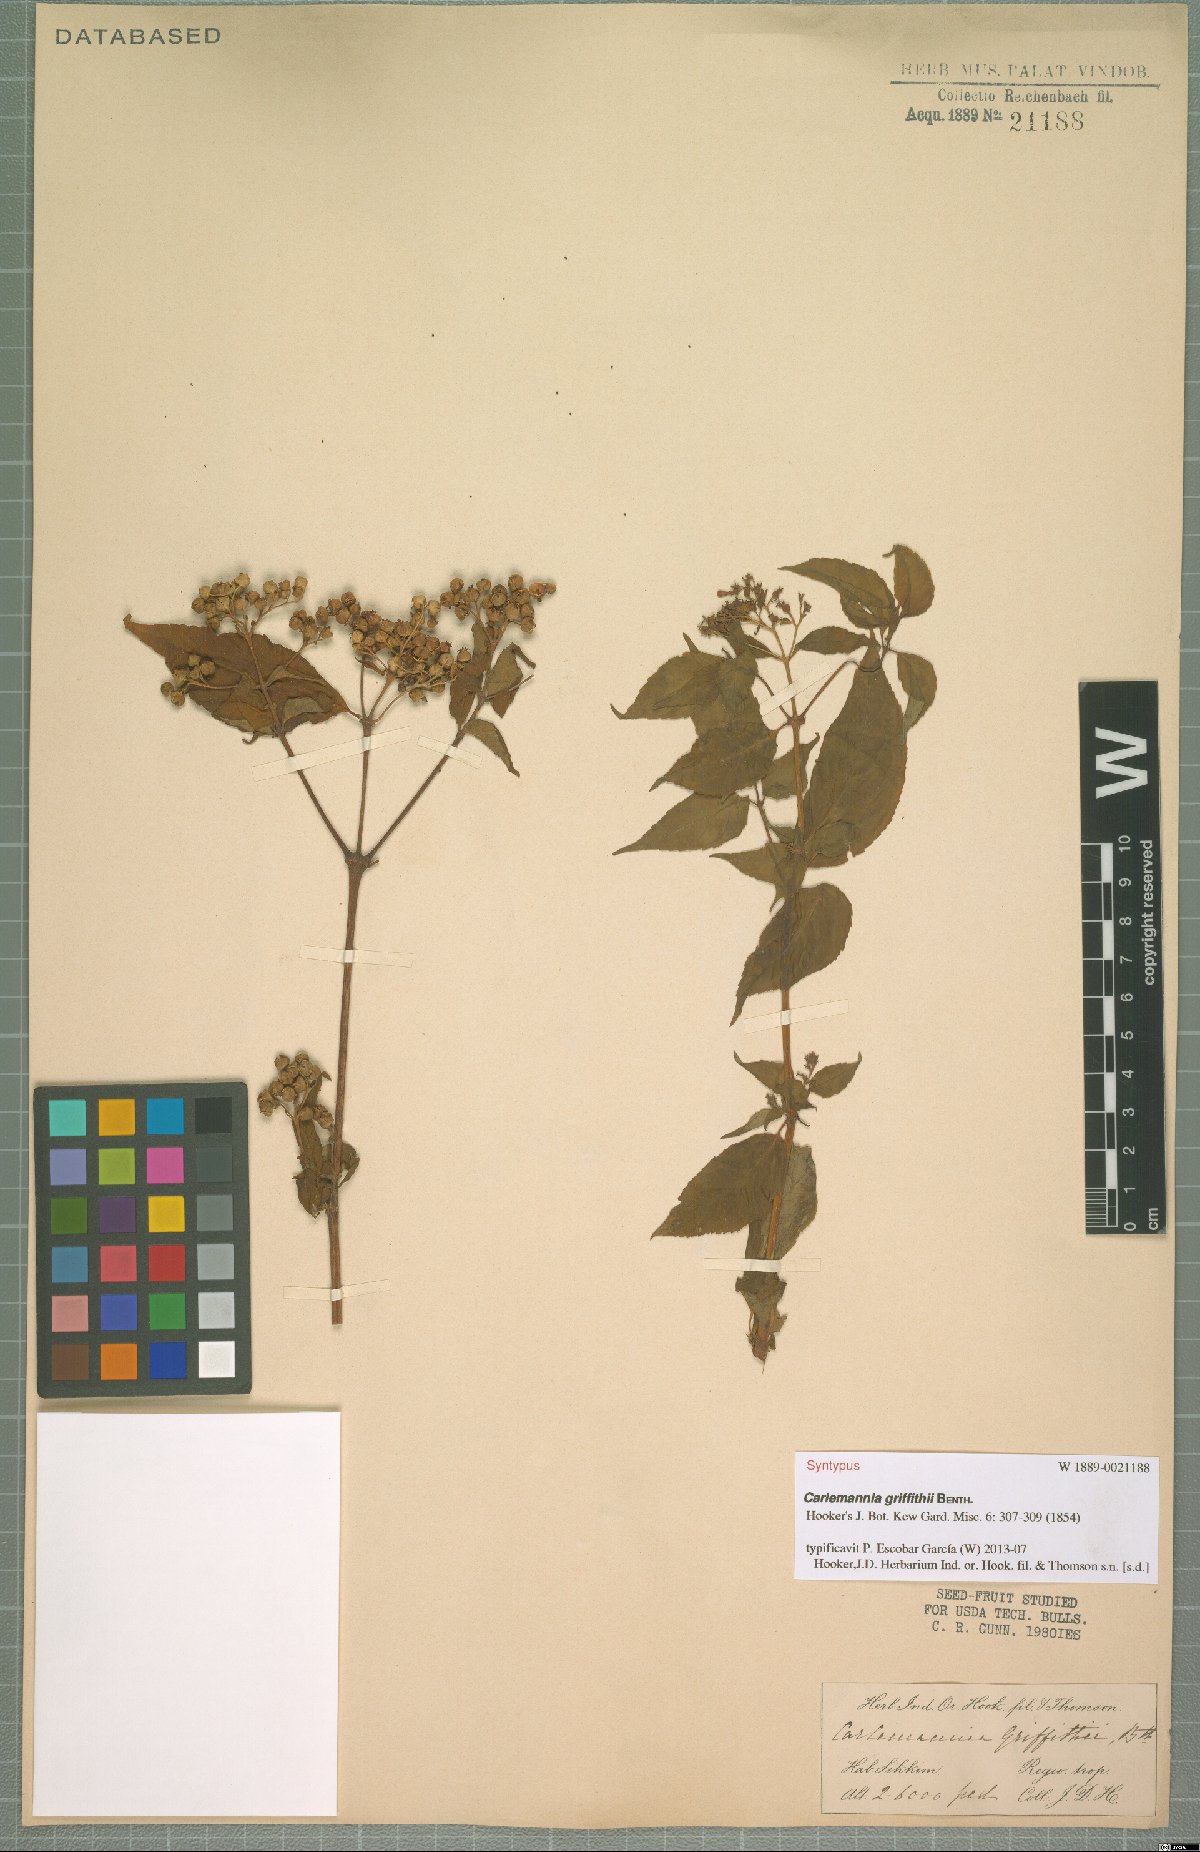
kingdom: Plantae
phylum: Tracheophyta
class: Magnoliopsida
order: Lamiales
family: Carlemanniaceae
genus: Carlemannia
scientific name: Carlemannia griffithii
